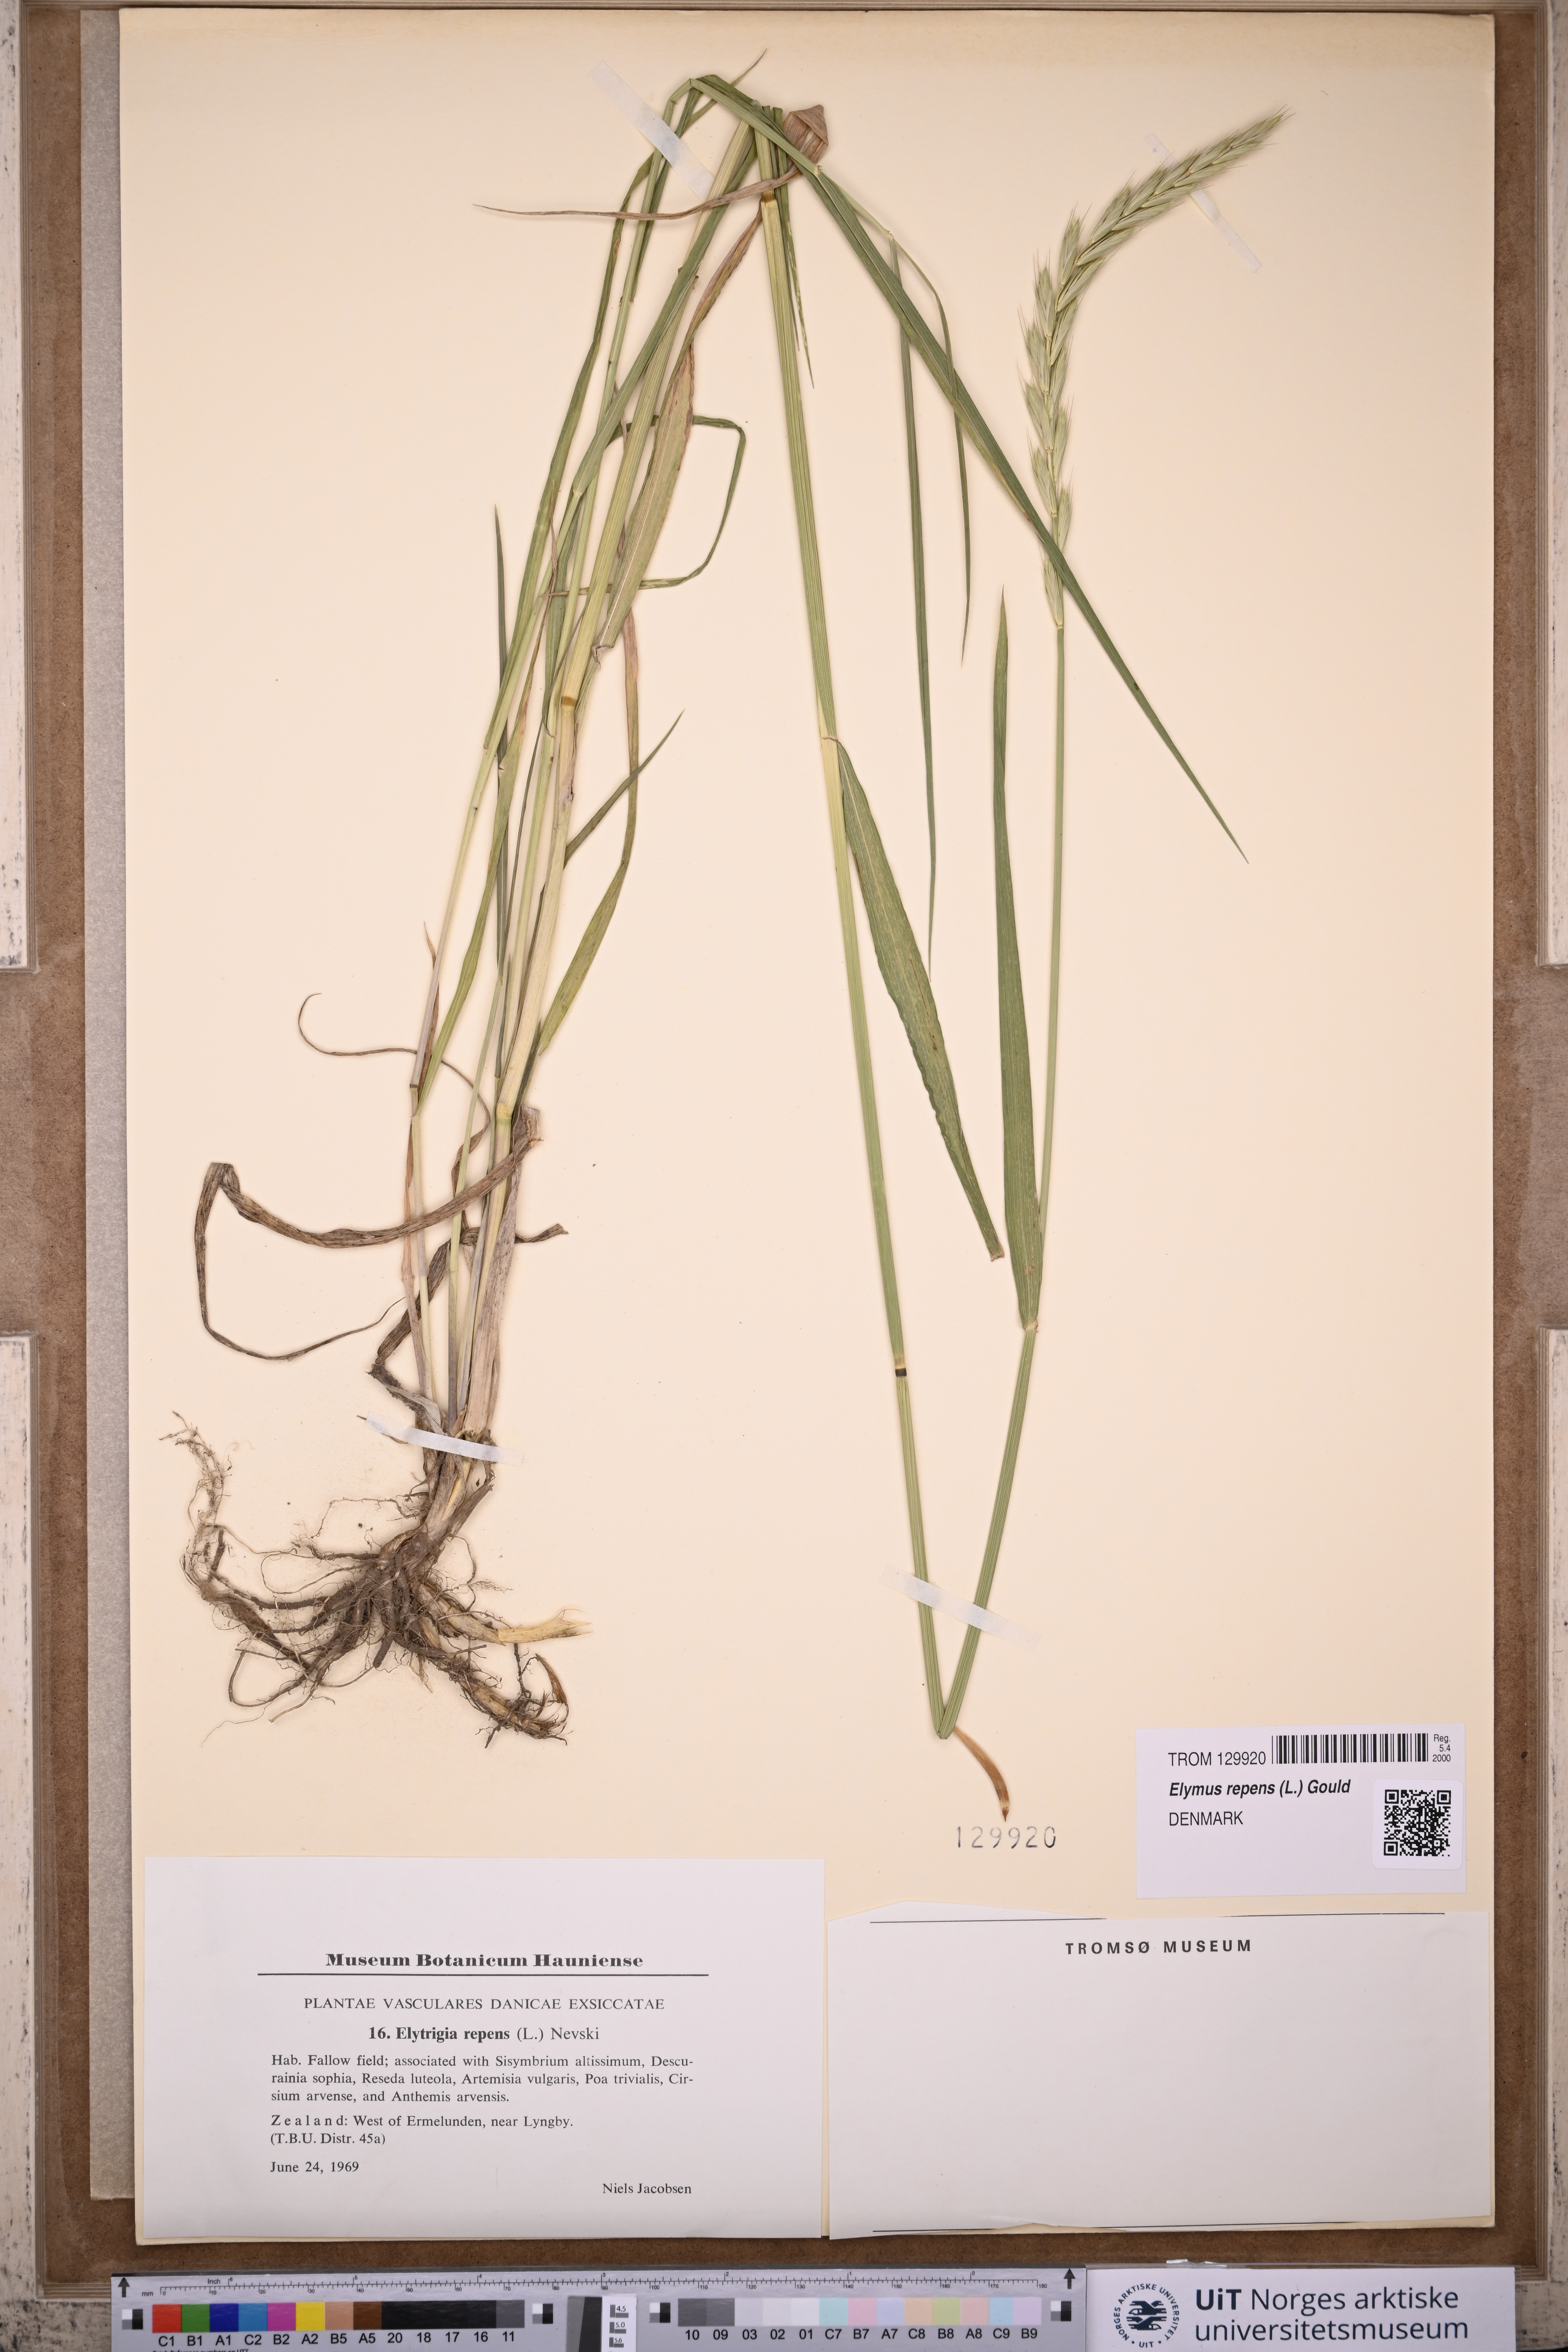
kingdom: Plantae
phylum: Tracheophyta
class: Liliopsida
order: Poales
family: Poaceae
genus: Elymus
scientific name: Elymus repens
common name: Quackgrass
